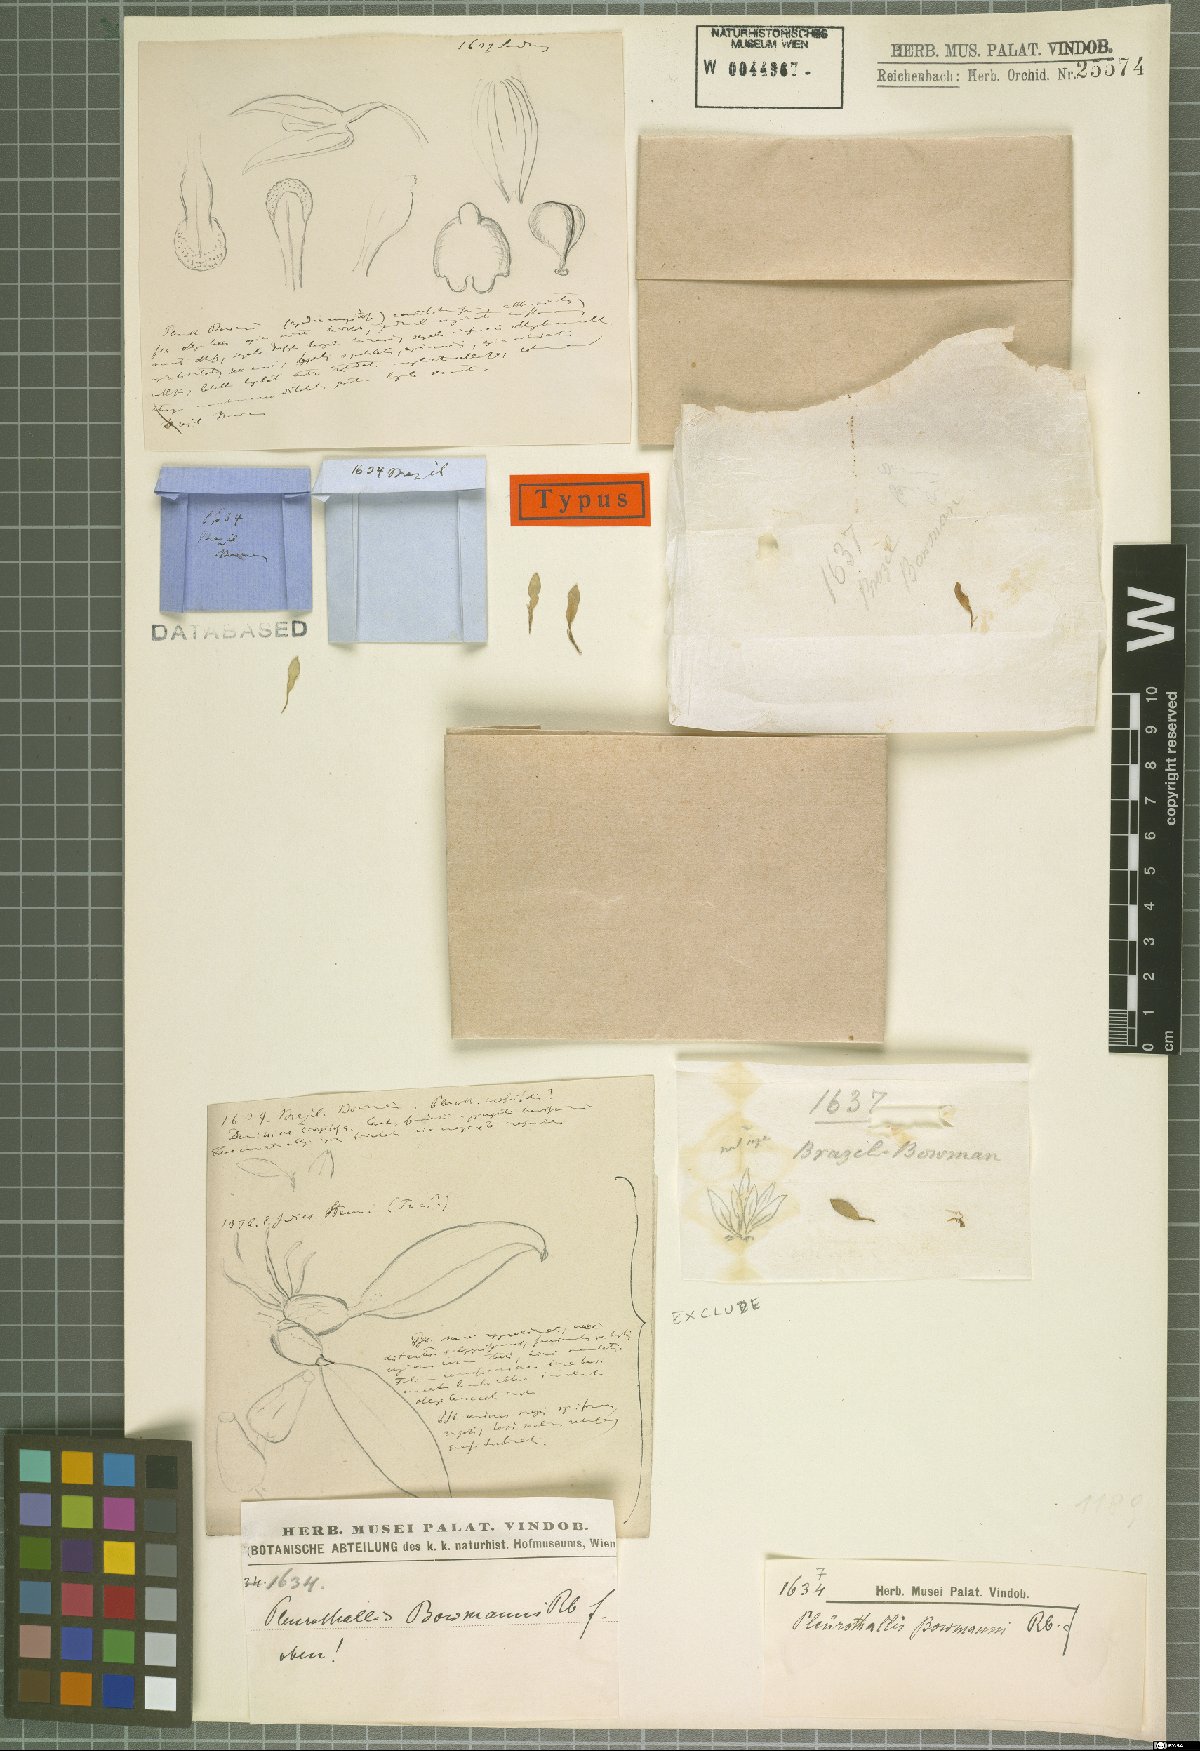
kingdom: Plantae
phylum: Tracheophyta
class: Liliopsida
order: Asparagales
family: Orchidaceae
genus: Pleurothallis
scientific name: Pleurothallis bowmanni
